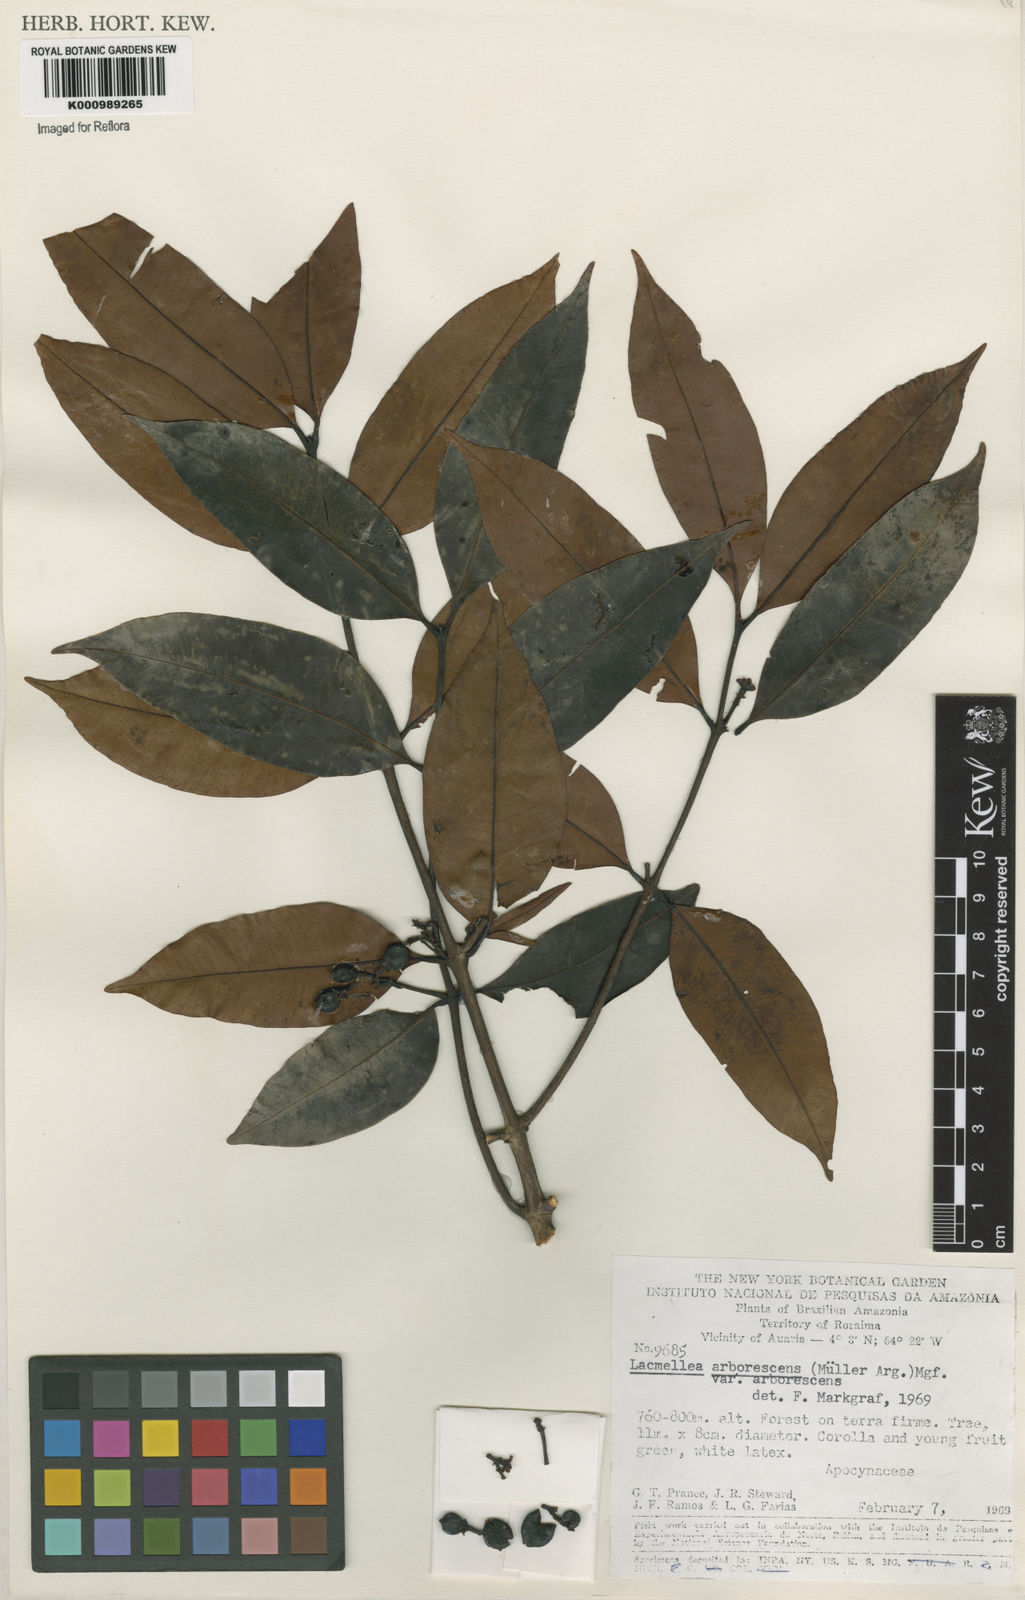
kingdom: Plantae
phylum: Tracheophyta
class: Magnoliopsida
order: Gentianales
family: Apocynaceae
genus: Lacmellea
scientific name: Lacmellea
